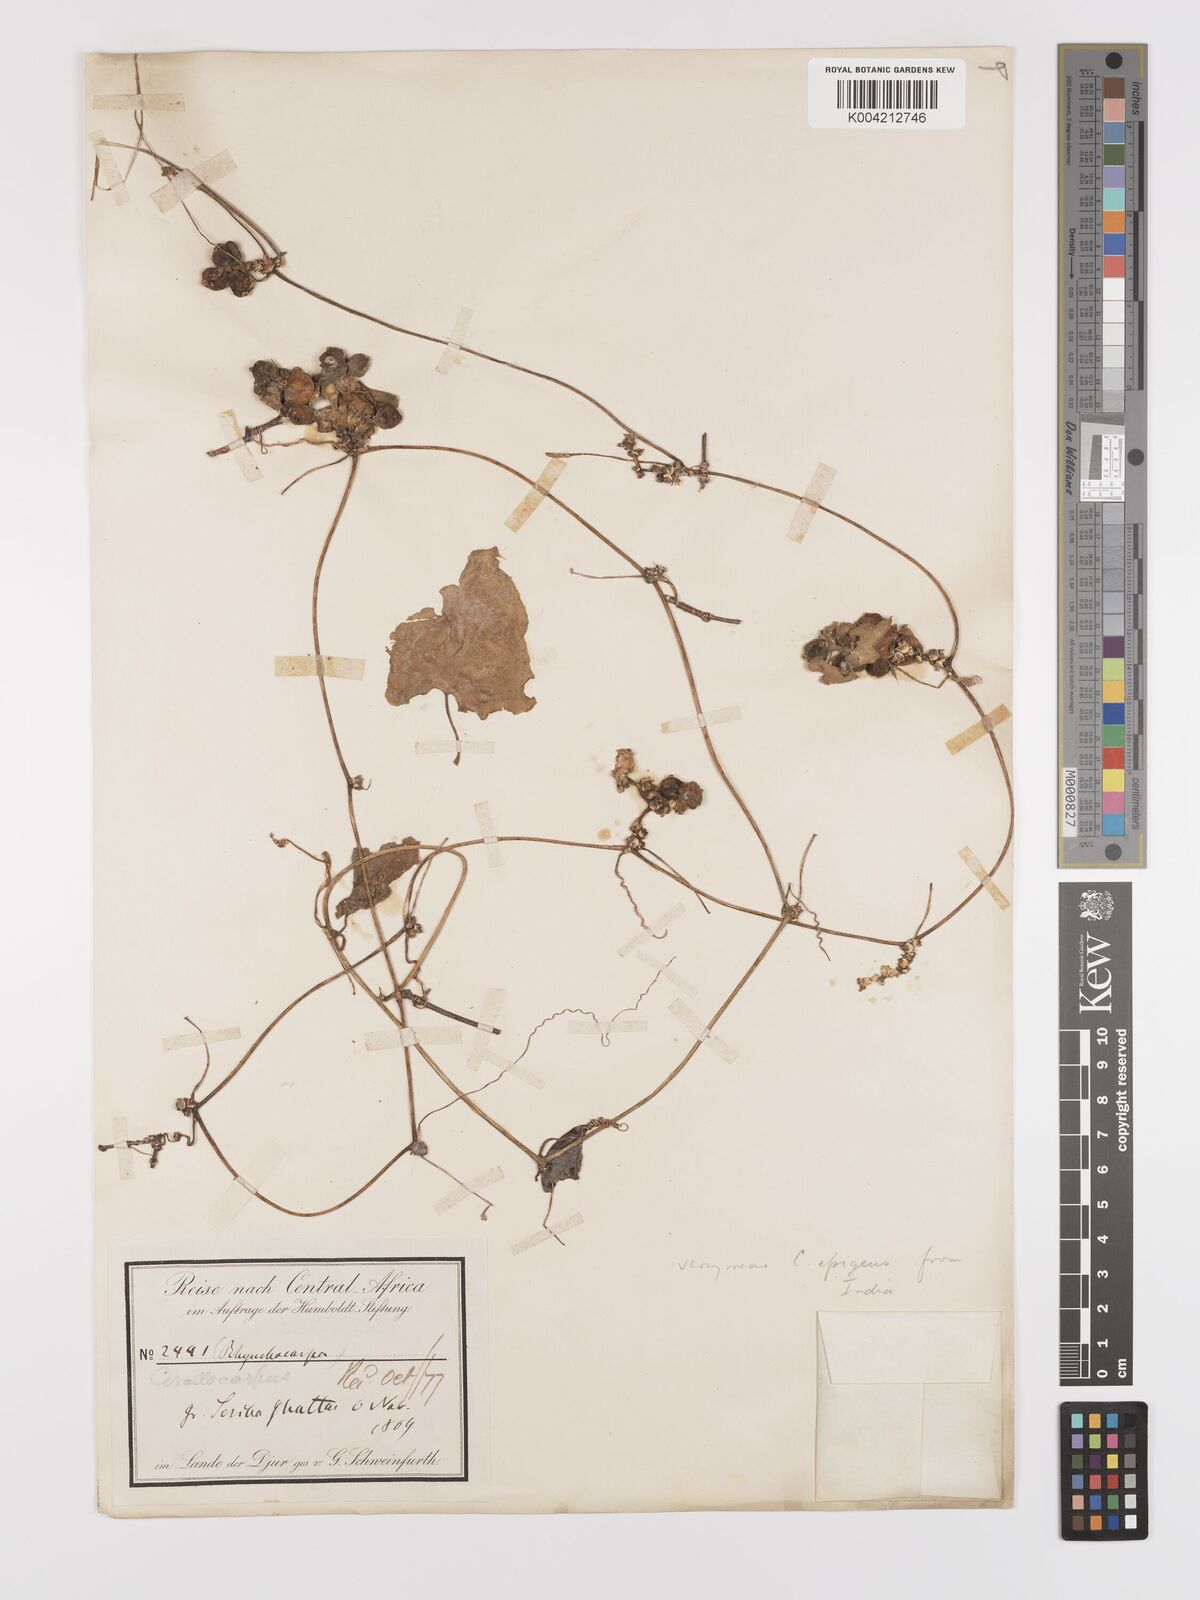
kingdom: Plantae
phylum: Tracheophyta
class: Magnoliopsida
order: Cucurbitales
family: Cucurbitaceae
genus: Corallocarpus
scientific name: Corallocarpus boehmii
